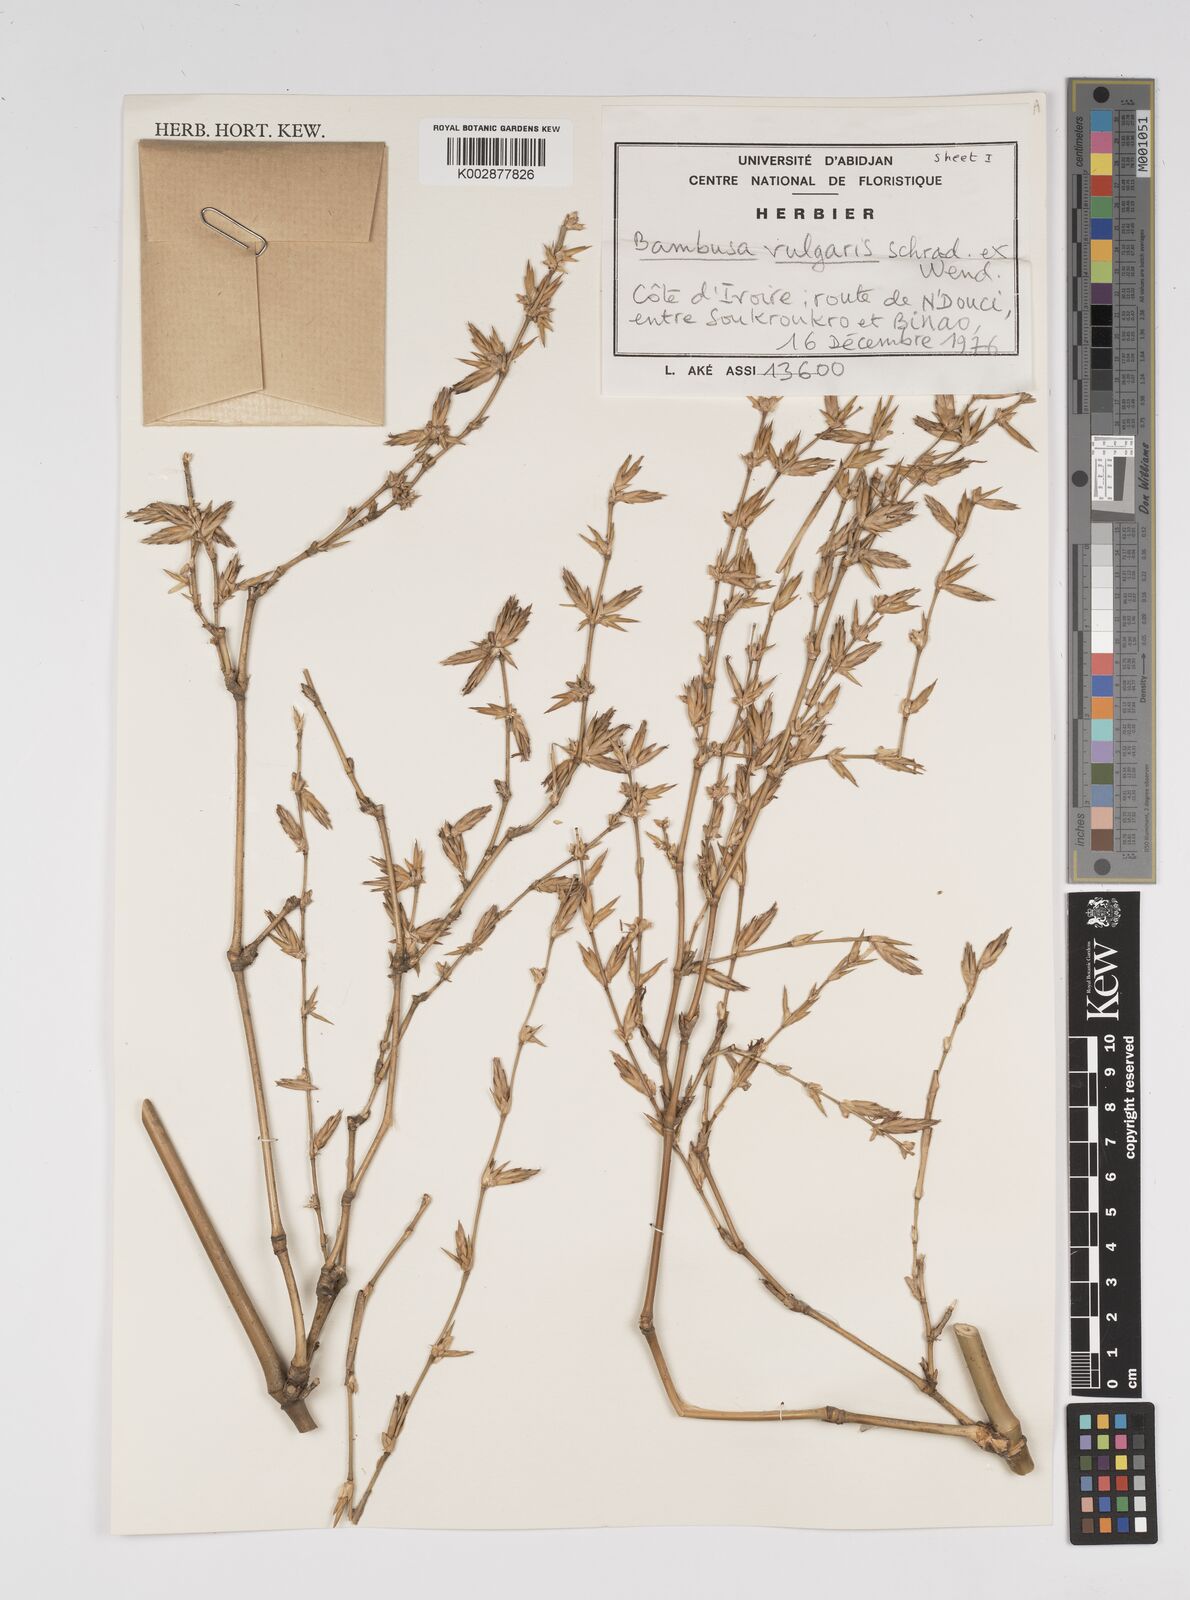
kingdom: Plantae
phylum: Tracheophyta
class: Liliopsida
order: Poales
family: Poaceae
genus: Bambusa
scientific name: Bambusa vulgaris
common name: Common bamboo
